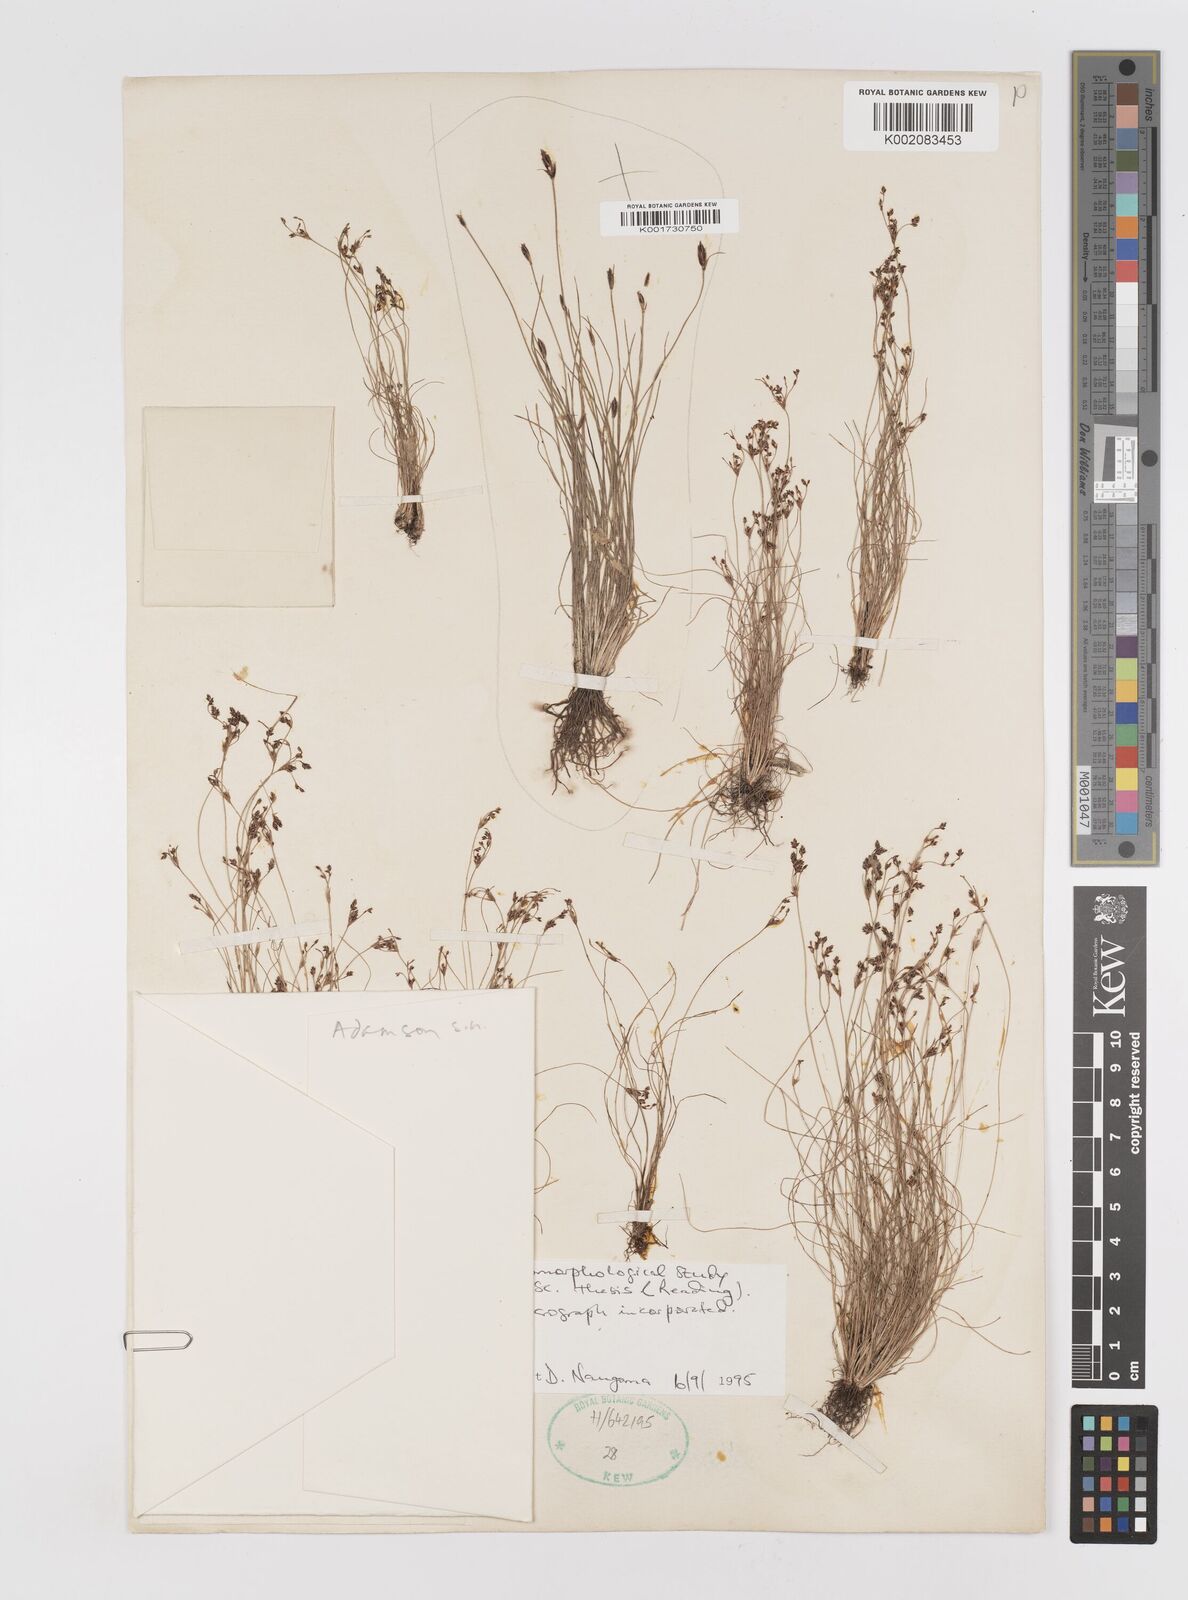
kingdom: Plantae
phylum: Tracheophyta
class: Liliopsida
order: Poales
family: Cyperaceae
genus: Bulbostylis
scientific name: Bulbostylis capillaris
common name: Densetuft hairsedge
